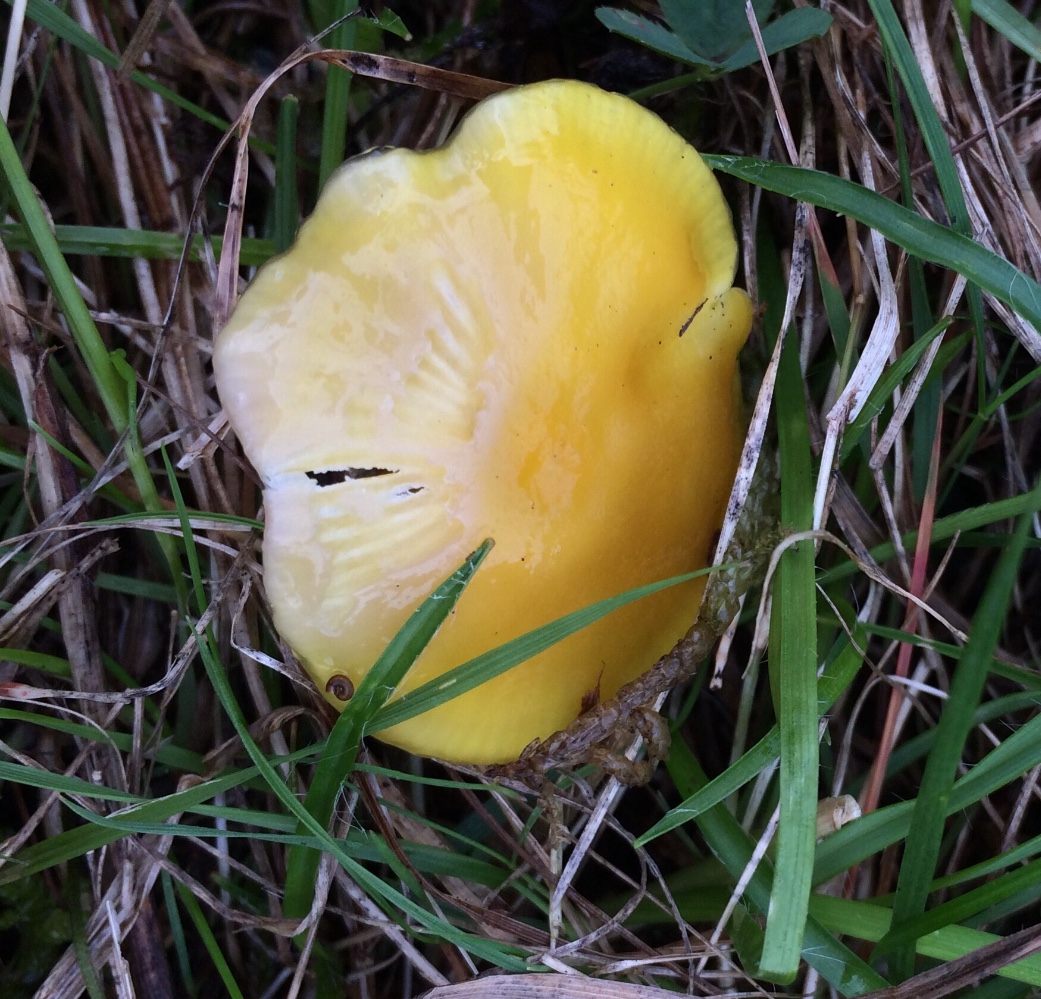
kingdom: Fungi
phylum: Basidiomycota
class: Agaricomycetes
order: Agaricales
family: Hygrophoraceae
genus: Hygrocybe
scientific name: Hygrocybe chlorophana
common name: gul vokshat
